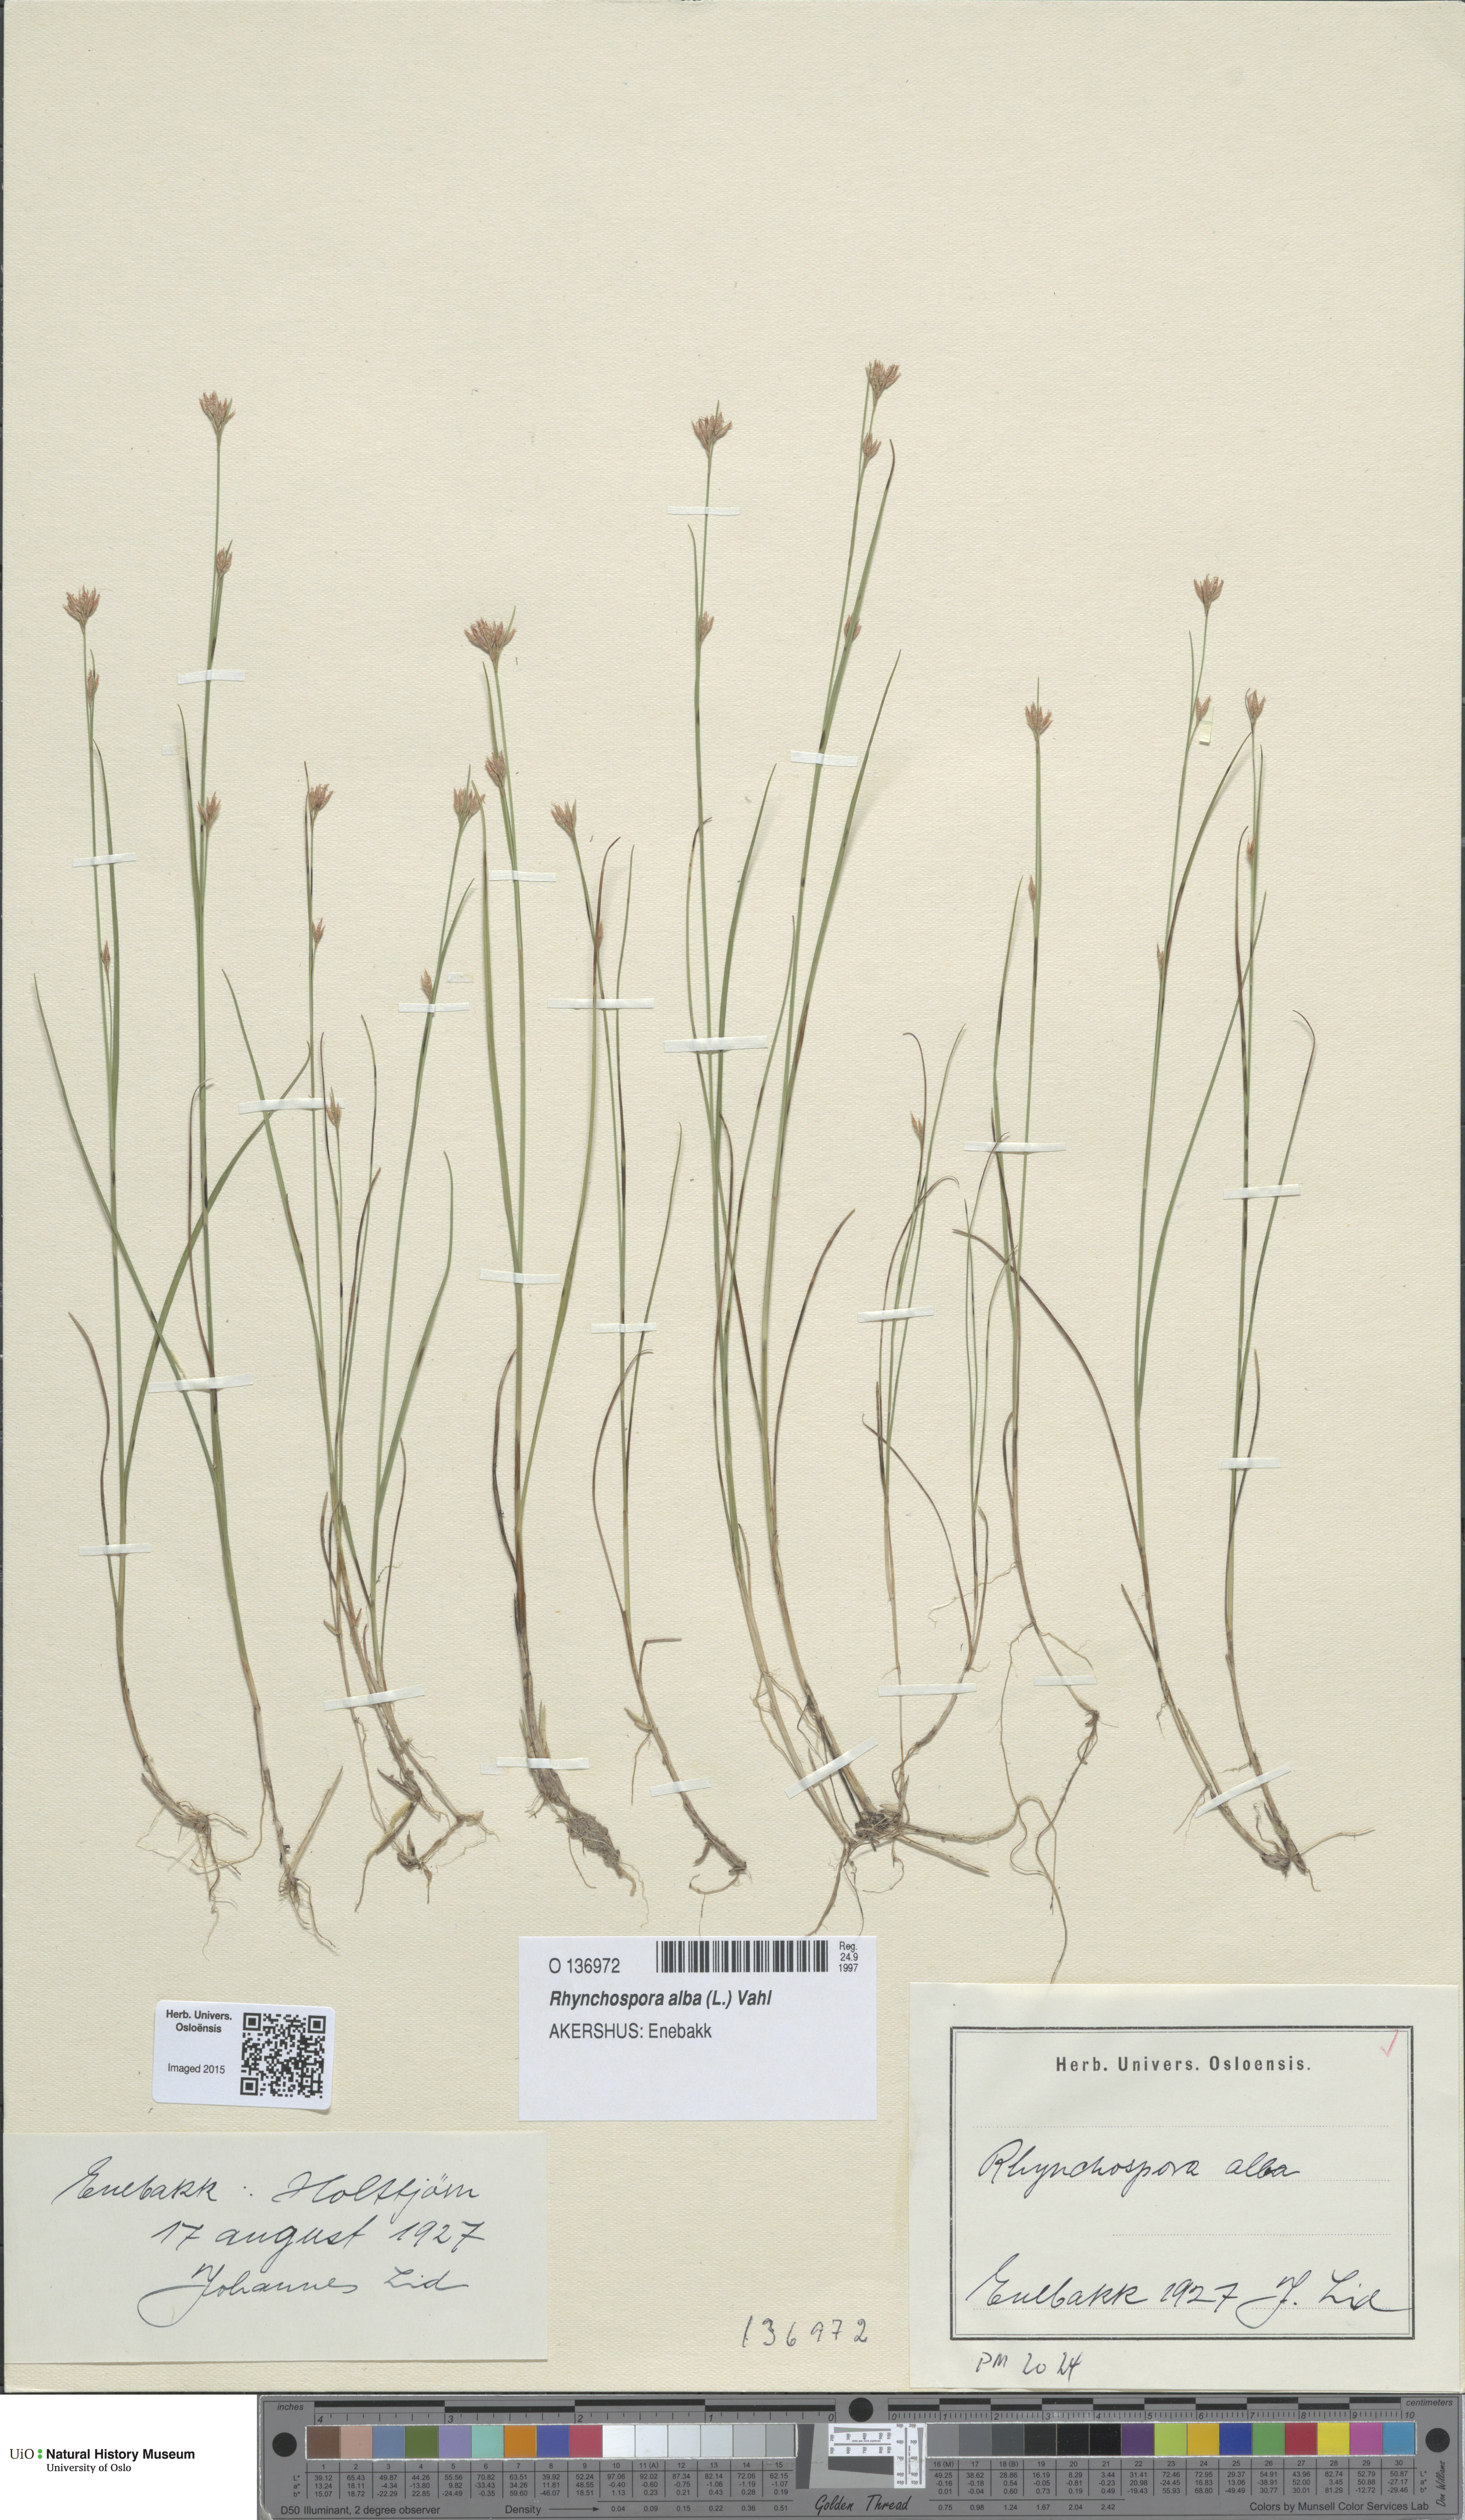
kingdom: Plantae
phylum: Tracheophyta
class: Liliopsida
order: Poales
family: Cyperaceae
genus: Rhynchospora
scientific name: Rhynchospora alba
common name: White beak-sedge
